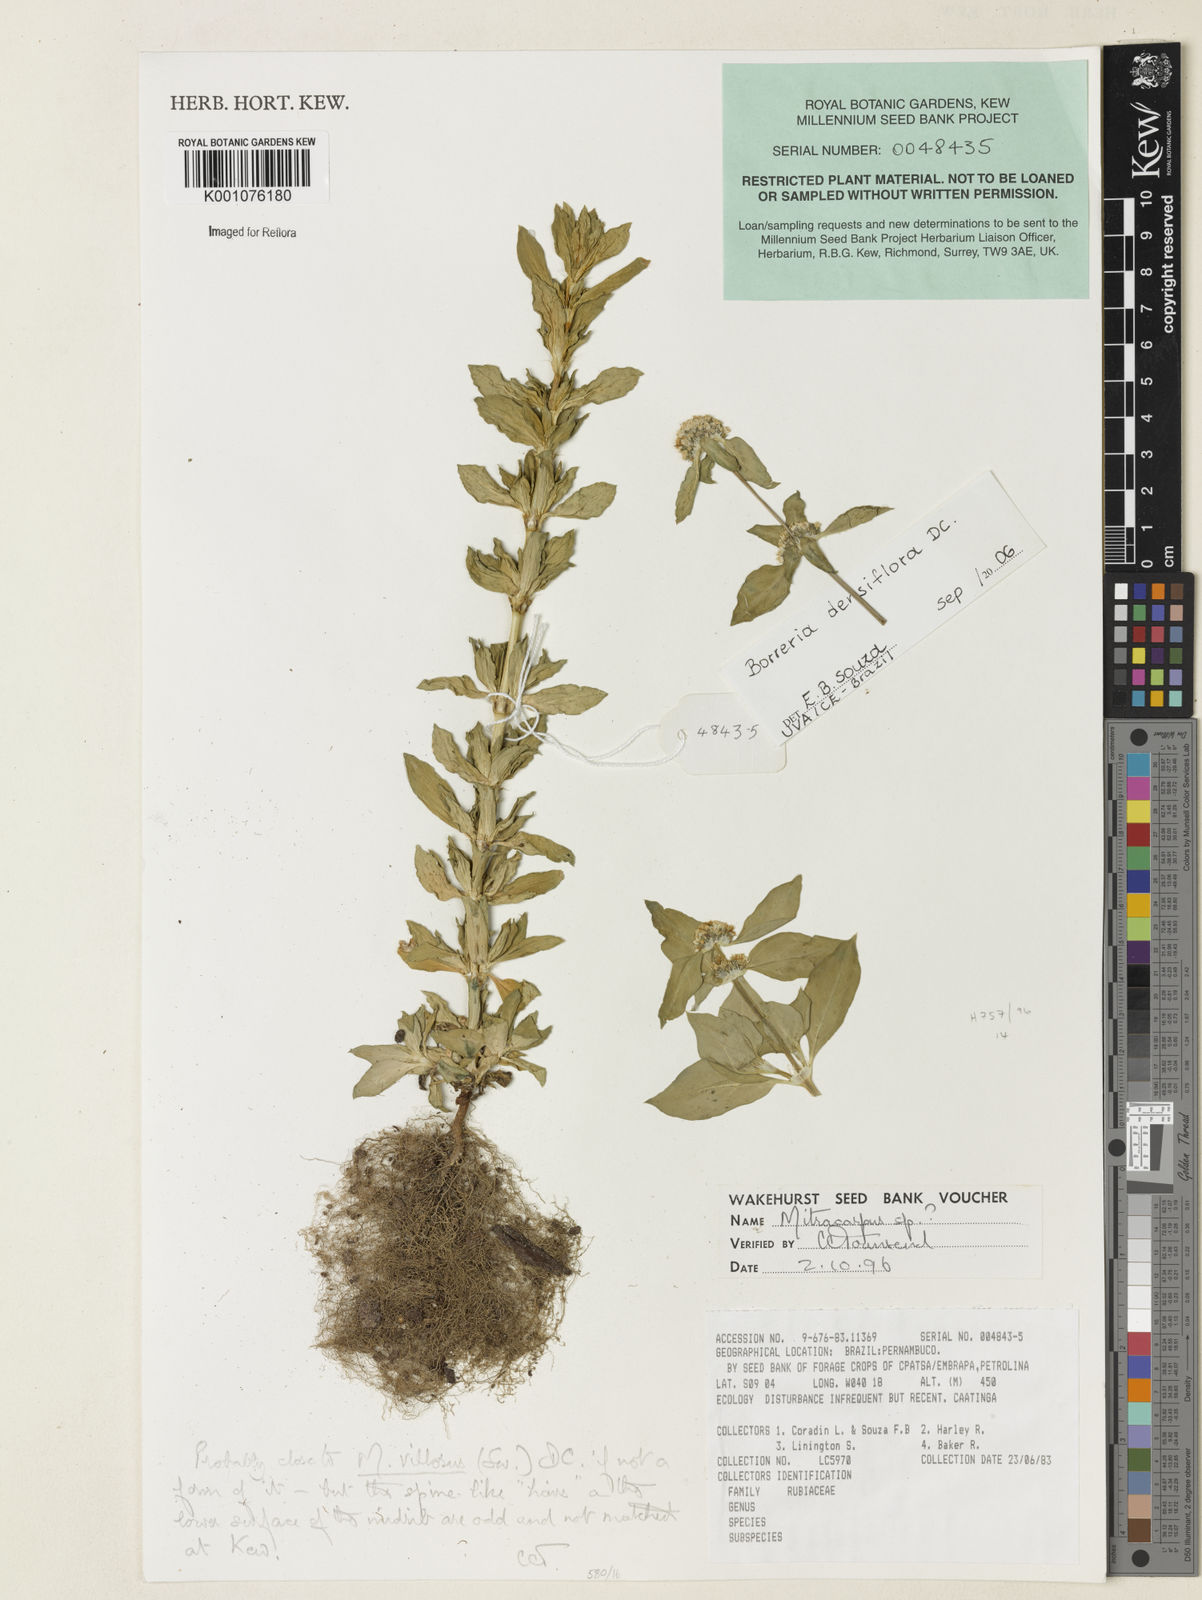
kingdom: Plantae
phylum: Tracheophyta
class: Magnoliopsida
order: Gentianales
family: Rubiaceae
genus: Spermacoce
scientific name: Spermacoce densiflora
